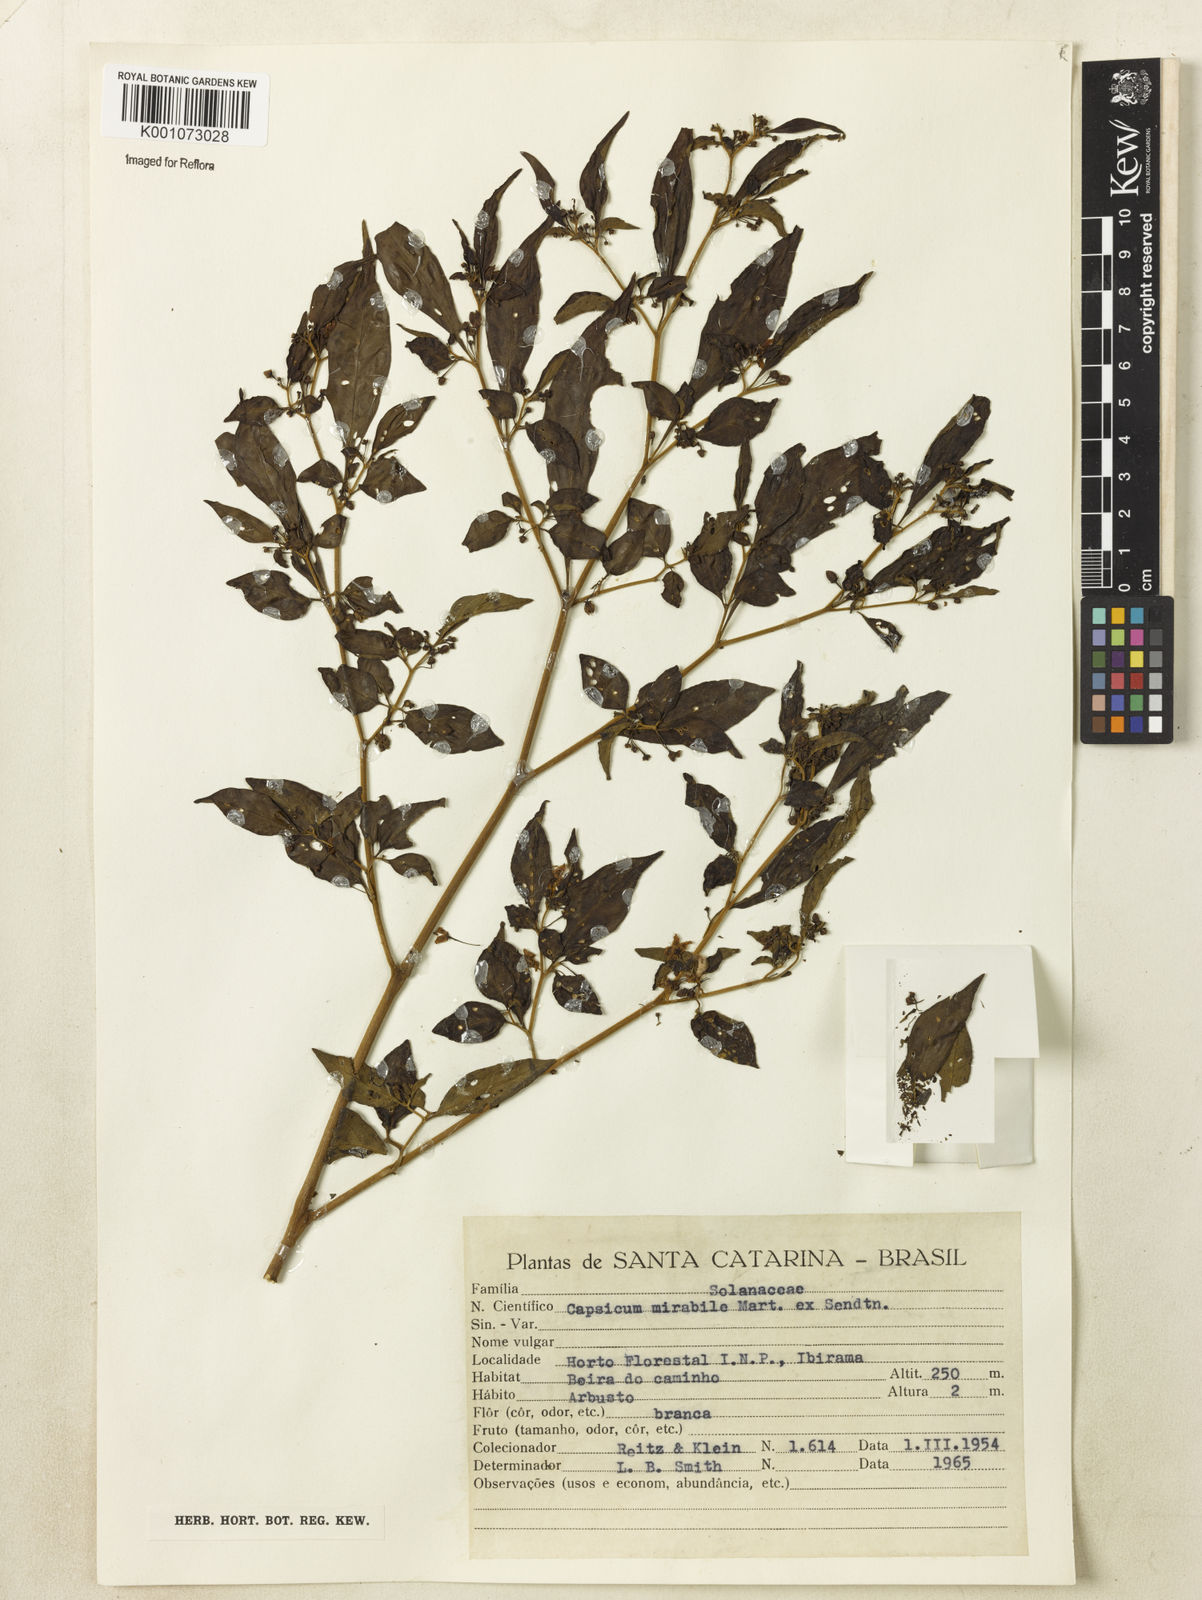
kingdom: Plantae
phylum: Tracheophyta
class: Magnoliopsida
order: Solanales
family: Solanaceae
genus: Capsicum
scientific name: Capsicum
